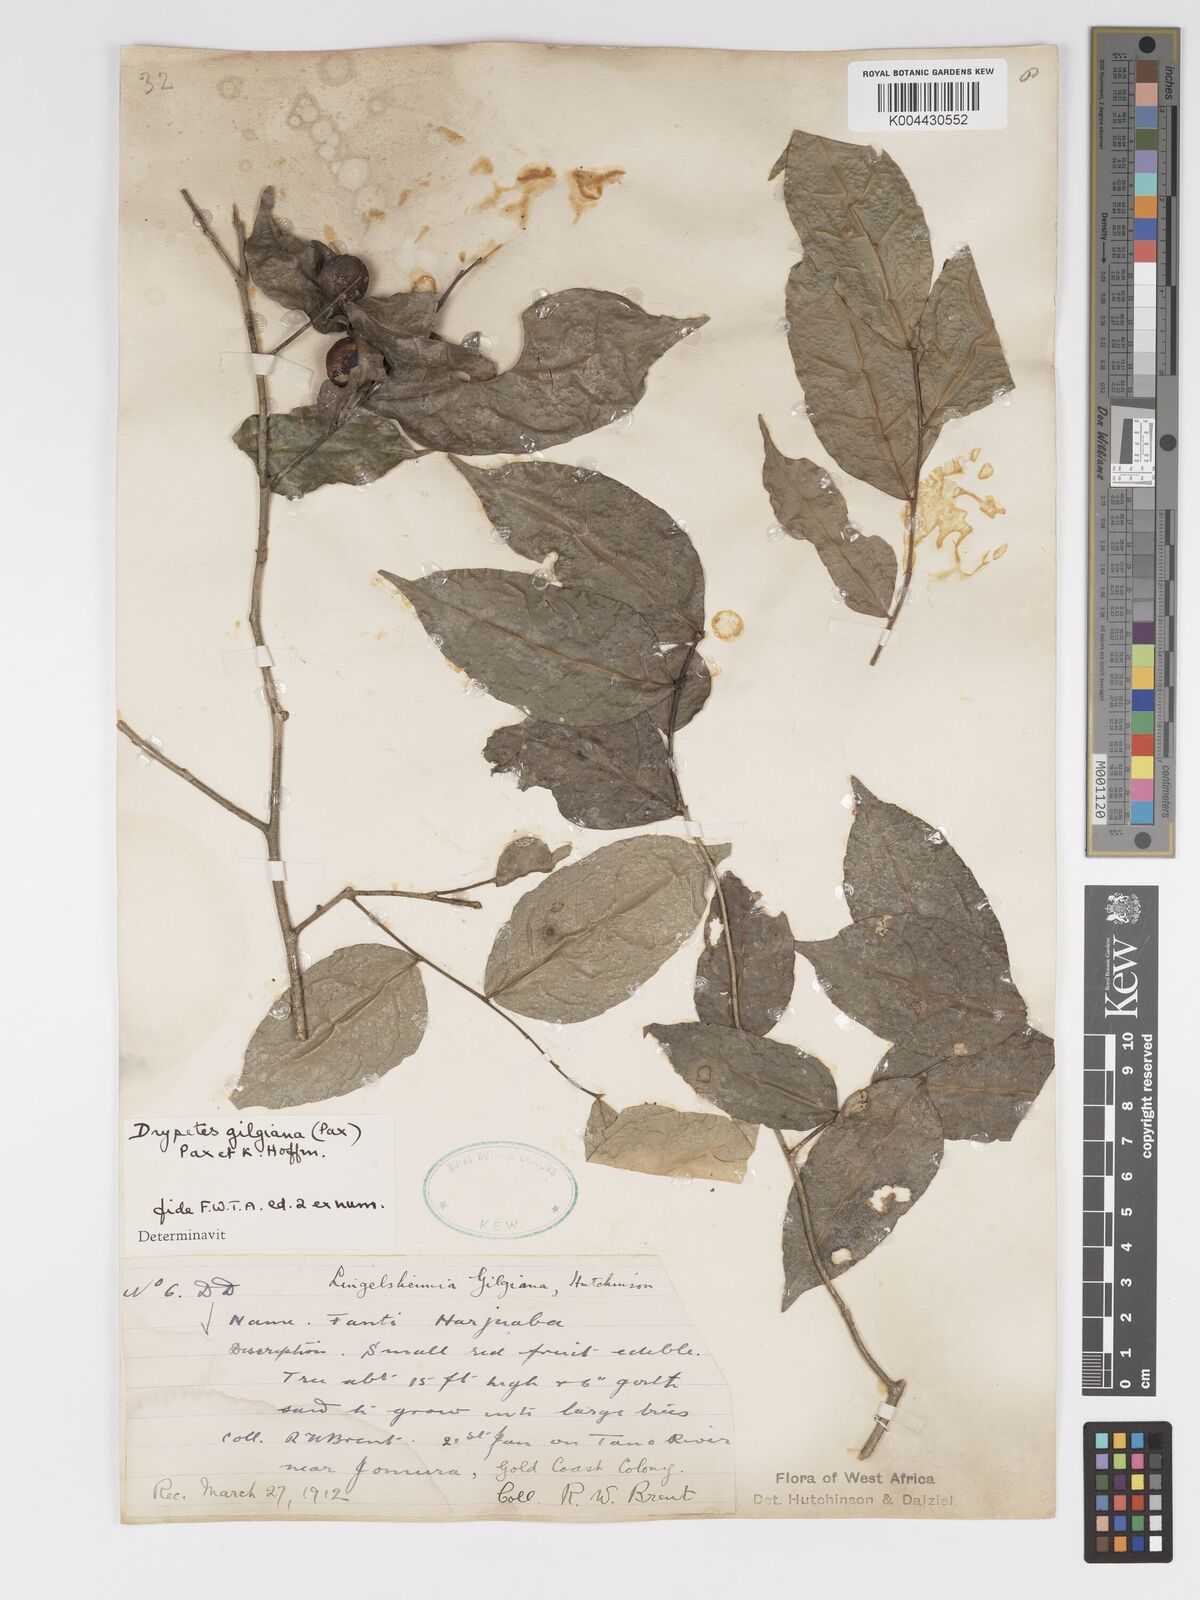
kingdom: Plantae
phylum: Tracheophyta
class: Magnoliopsida
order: Malpighiales
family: Putranjivaceae
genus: Drypetes
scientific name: Drypetes gilgiana
